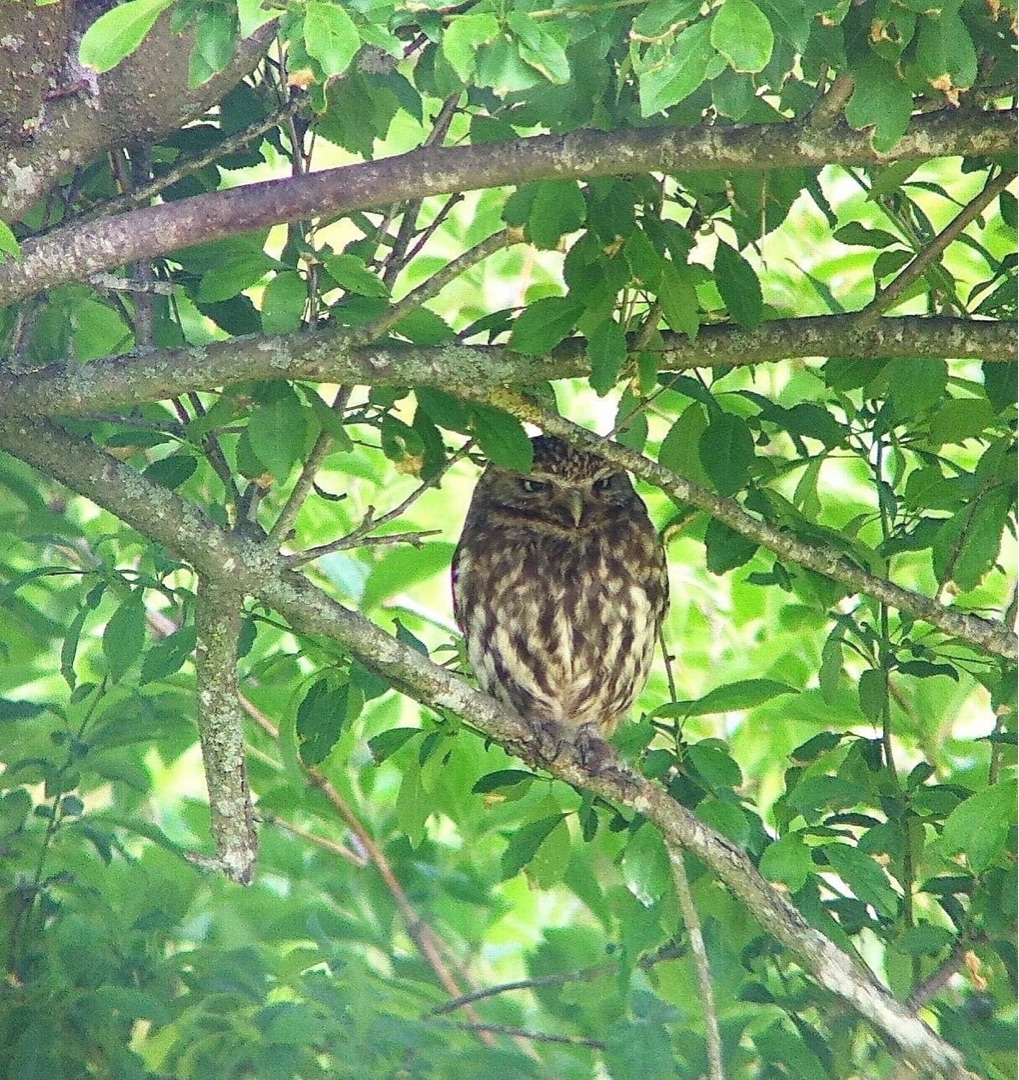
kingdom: Animalia
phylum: Chordata
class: Aves
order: Strigiformes
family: Strigidae
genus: Athene
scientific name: Athene noctua
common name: Kirkeugle
